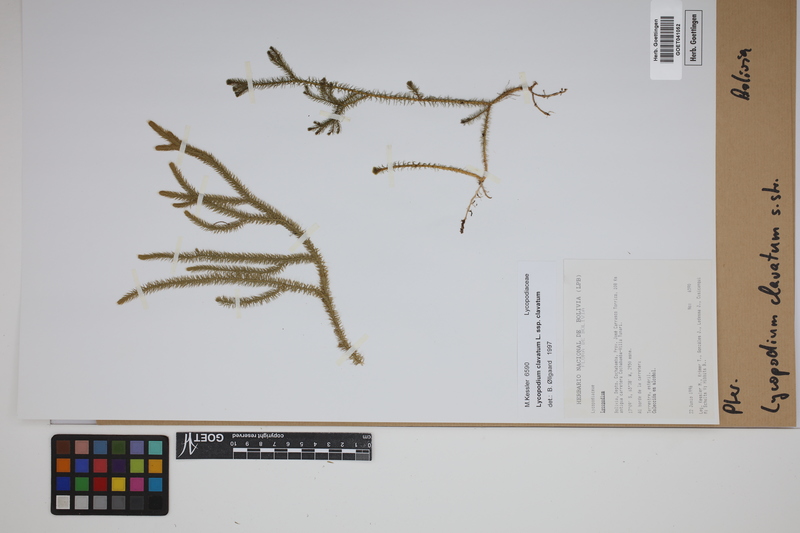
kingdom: Plantae
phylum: Tracheophyta
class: Lycopodiopsida
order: Lycopodiales
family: Lycopodiaceae
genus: Lycopodium
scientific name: Lycopodium clavatum
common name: Stag's-horn clubmoss
